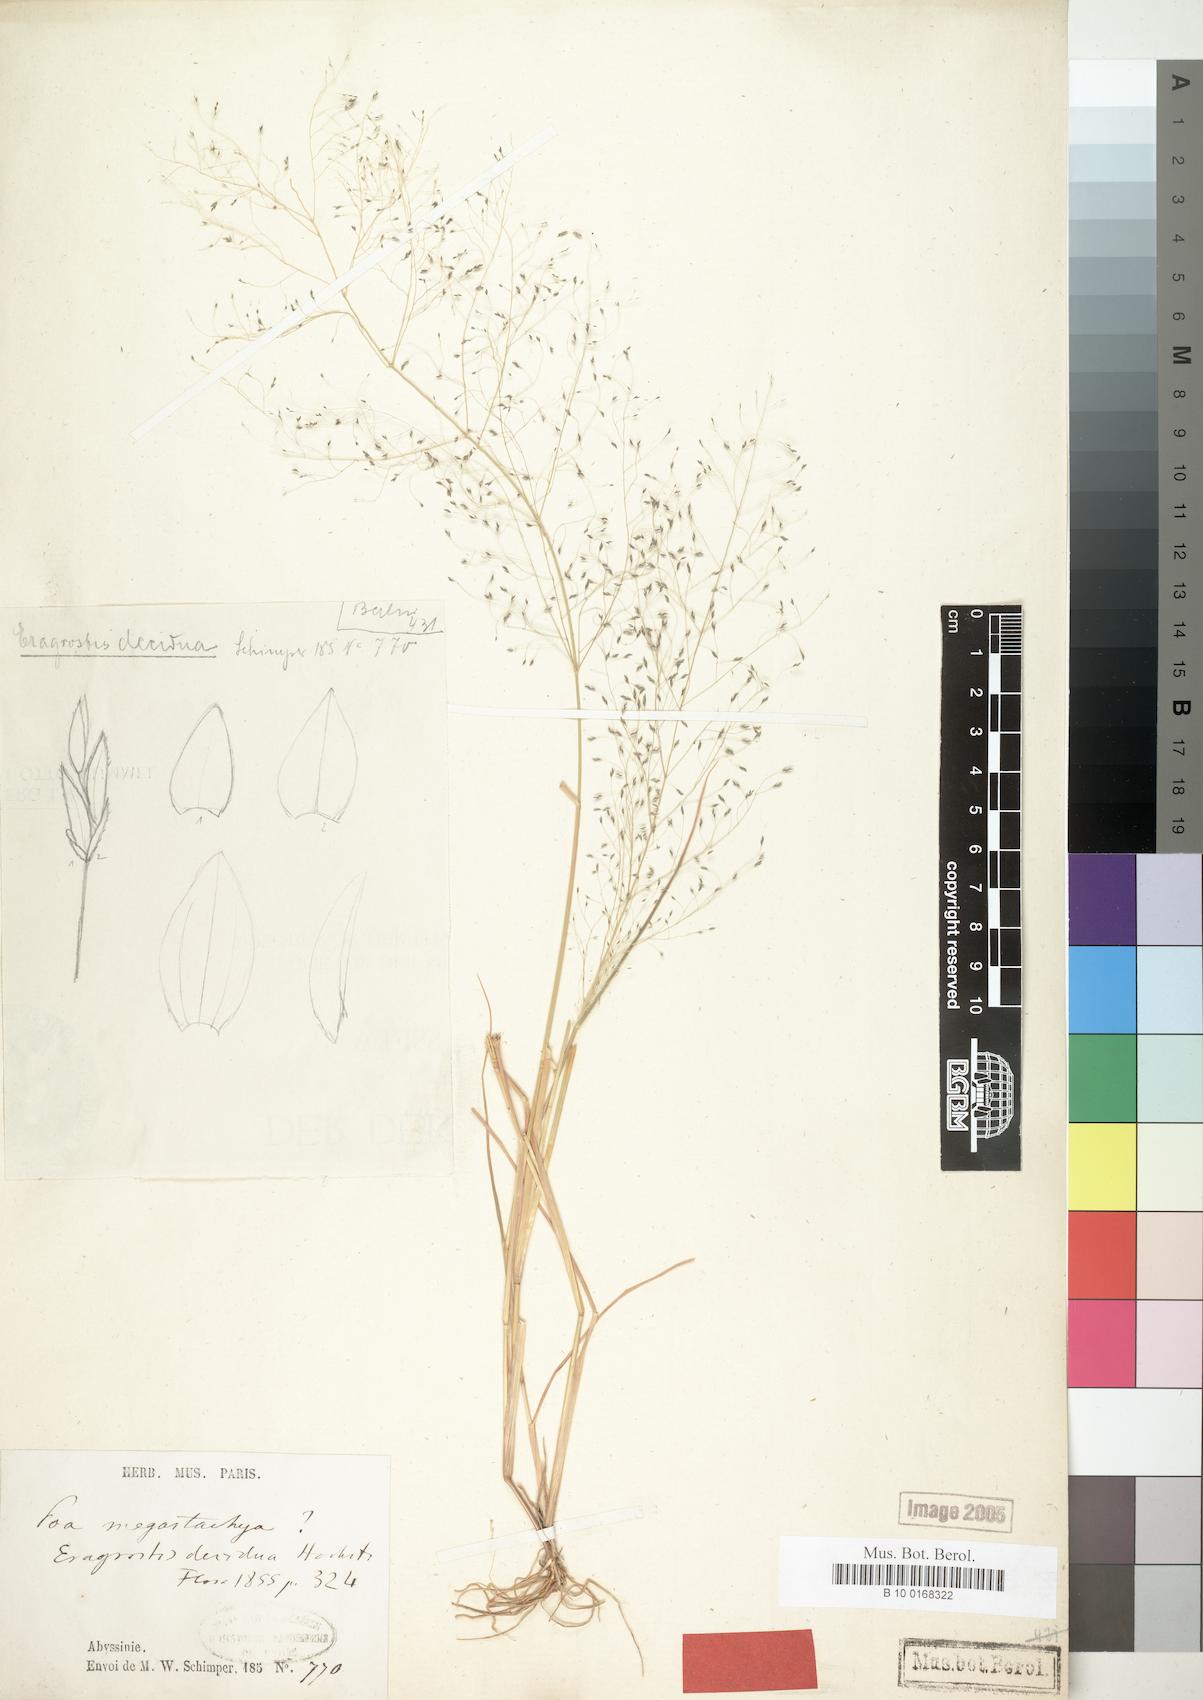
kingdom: Plantae
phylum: Tracheophyta
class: Liliopsida
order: Poales
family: Poaceae
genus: Eragrostis
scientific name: Eragrostis macilenta
